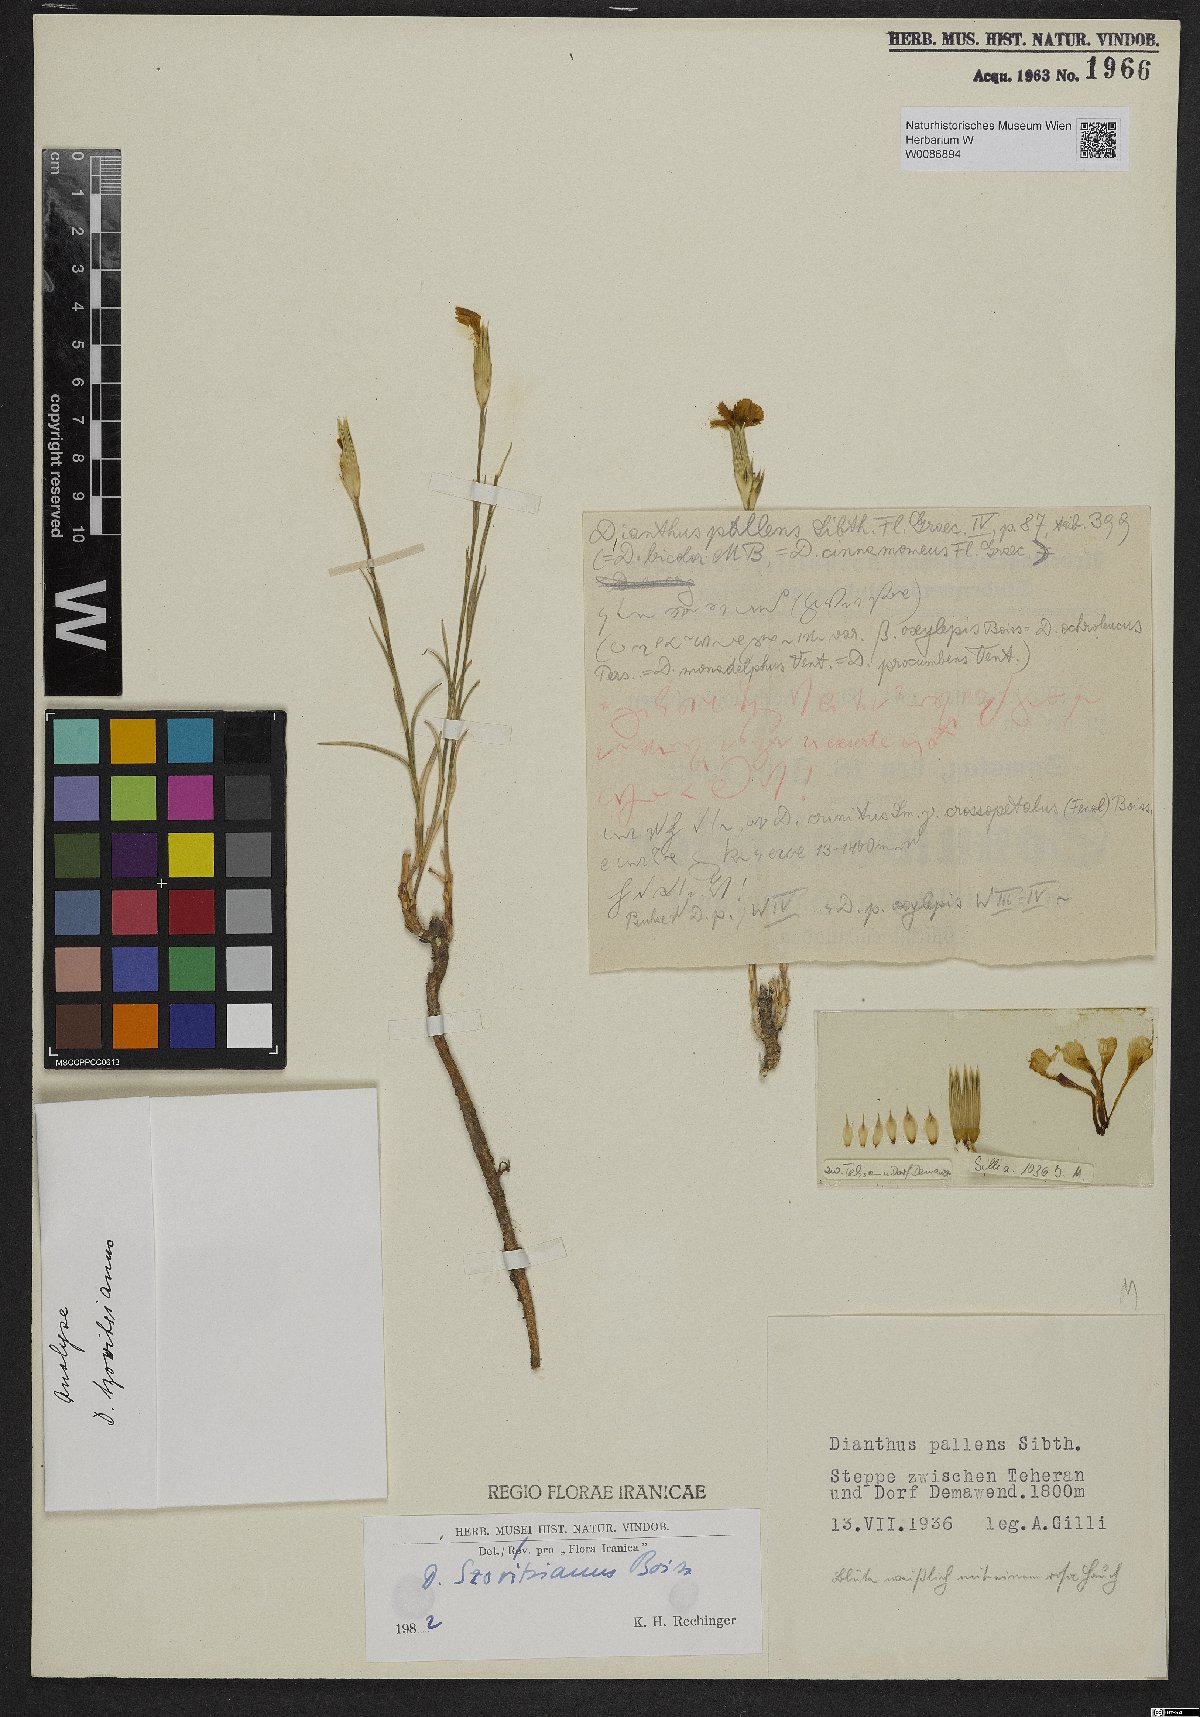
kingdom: Plantae
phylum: Tracheophyta
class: Magnoliopsida
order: Caryophyllales
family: Caryophyllaceae
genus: Dianthus
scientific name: Dianthus szowitsianus
